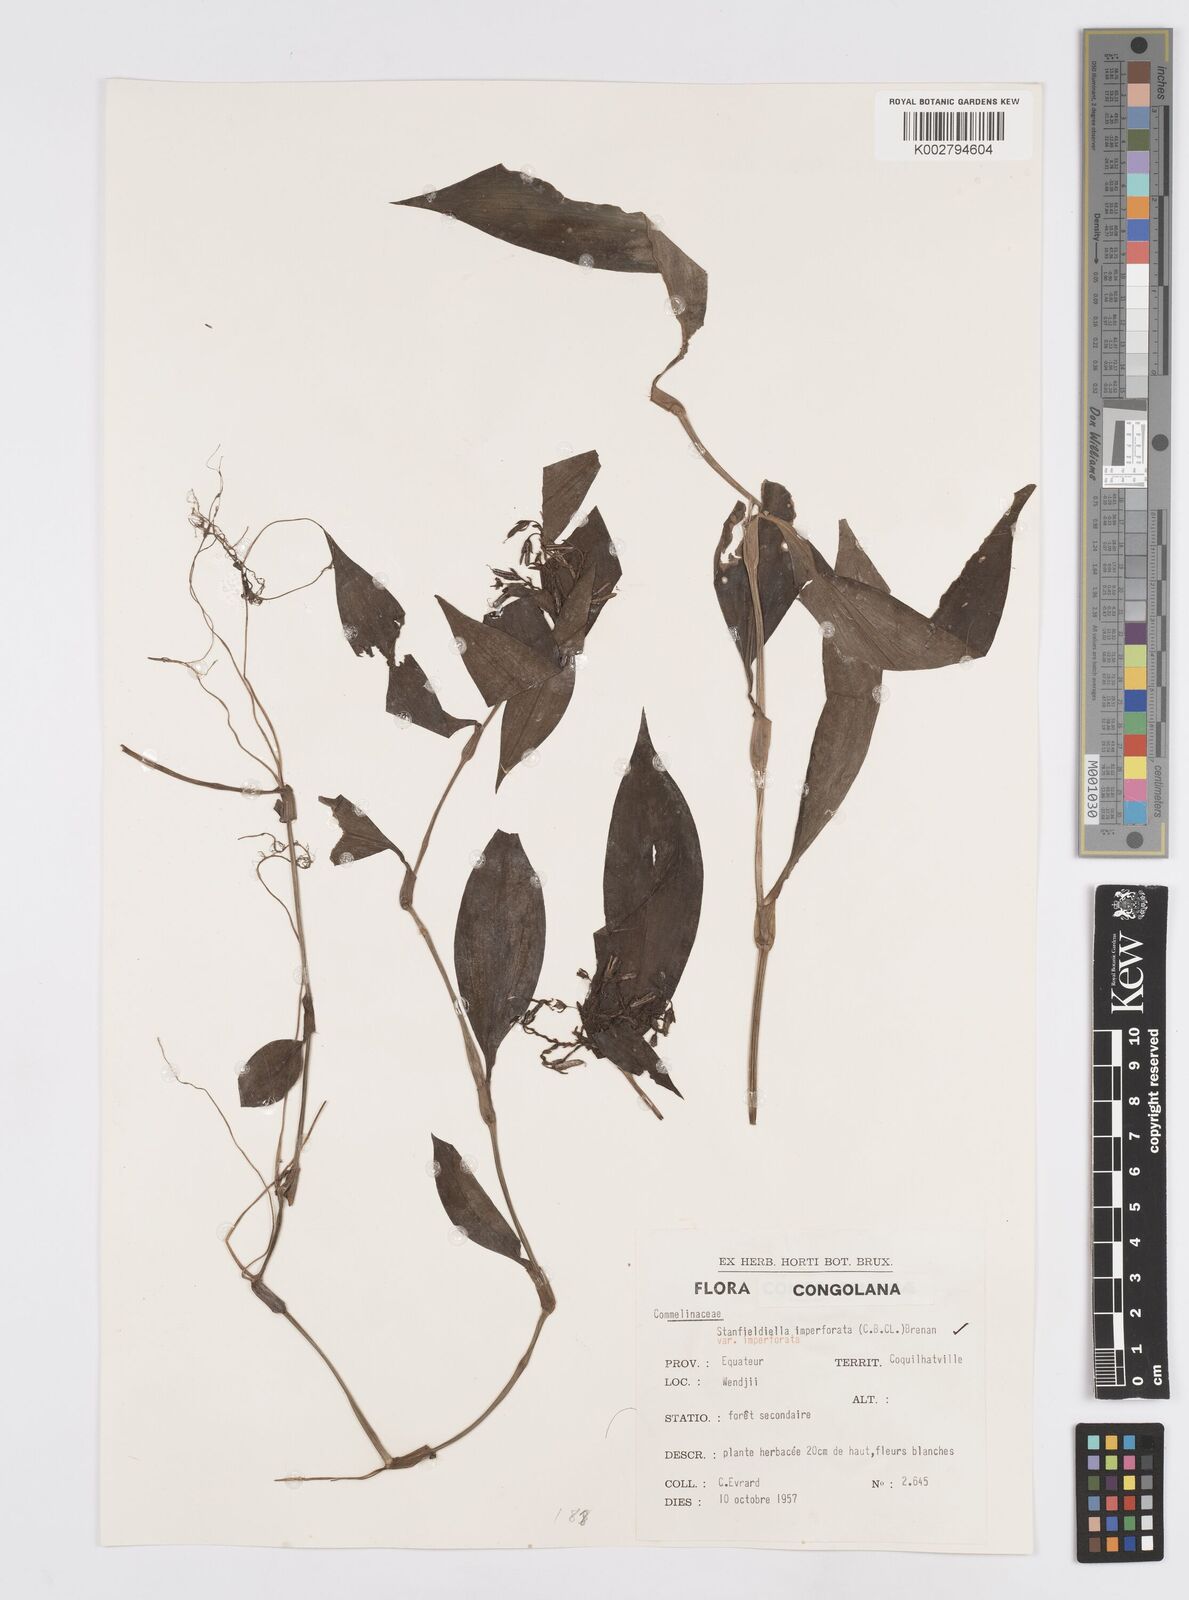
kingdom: Plantae
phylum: Tracheophyta
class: Liliopsida
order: Commelinales
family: Commelinaceae
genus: Stanfieldiella
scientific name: Stanfieldiella imperforata
